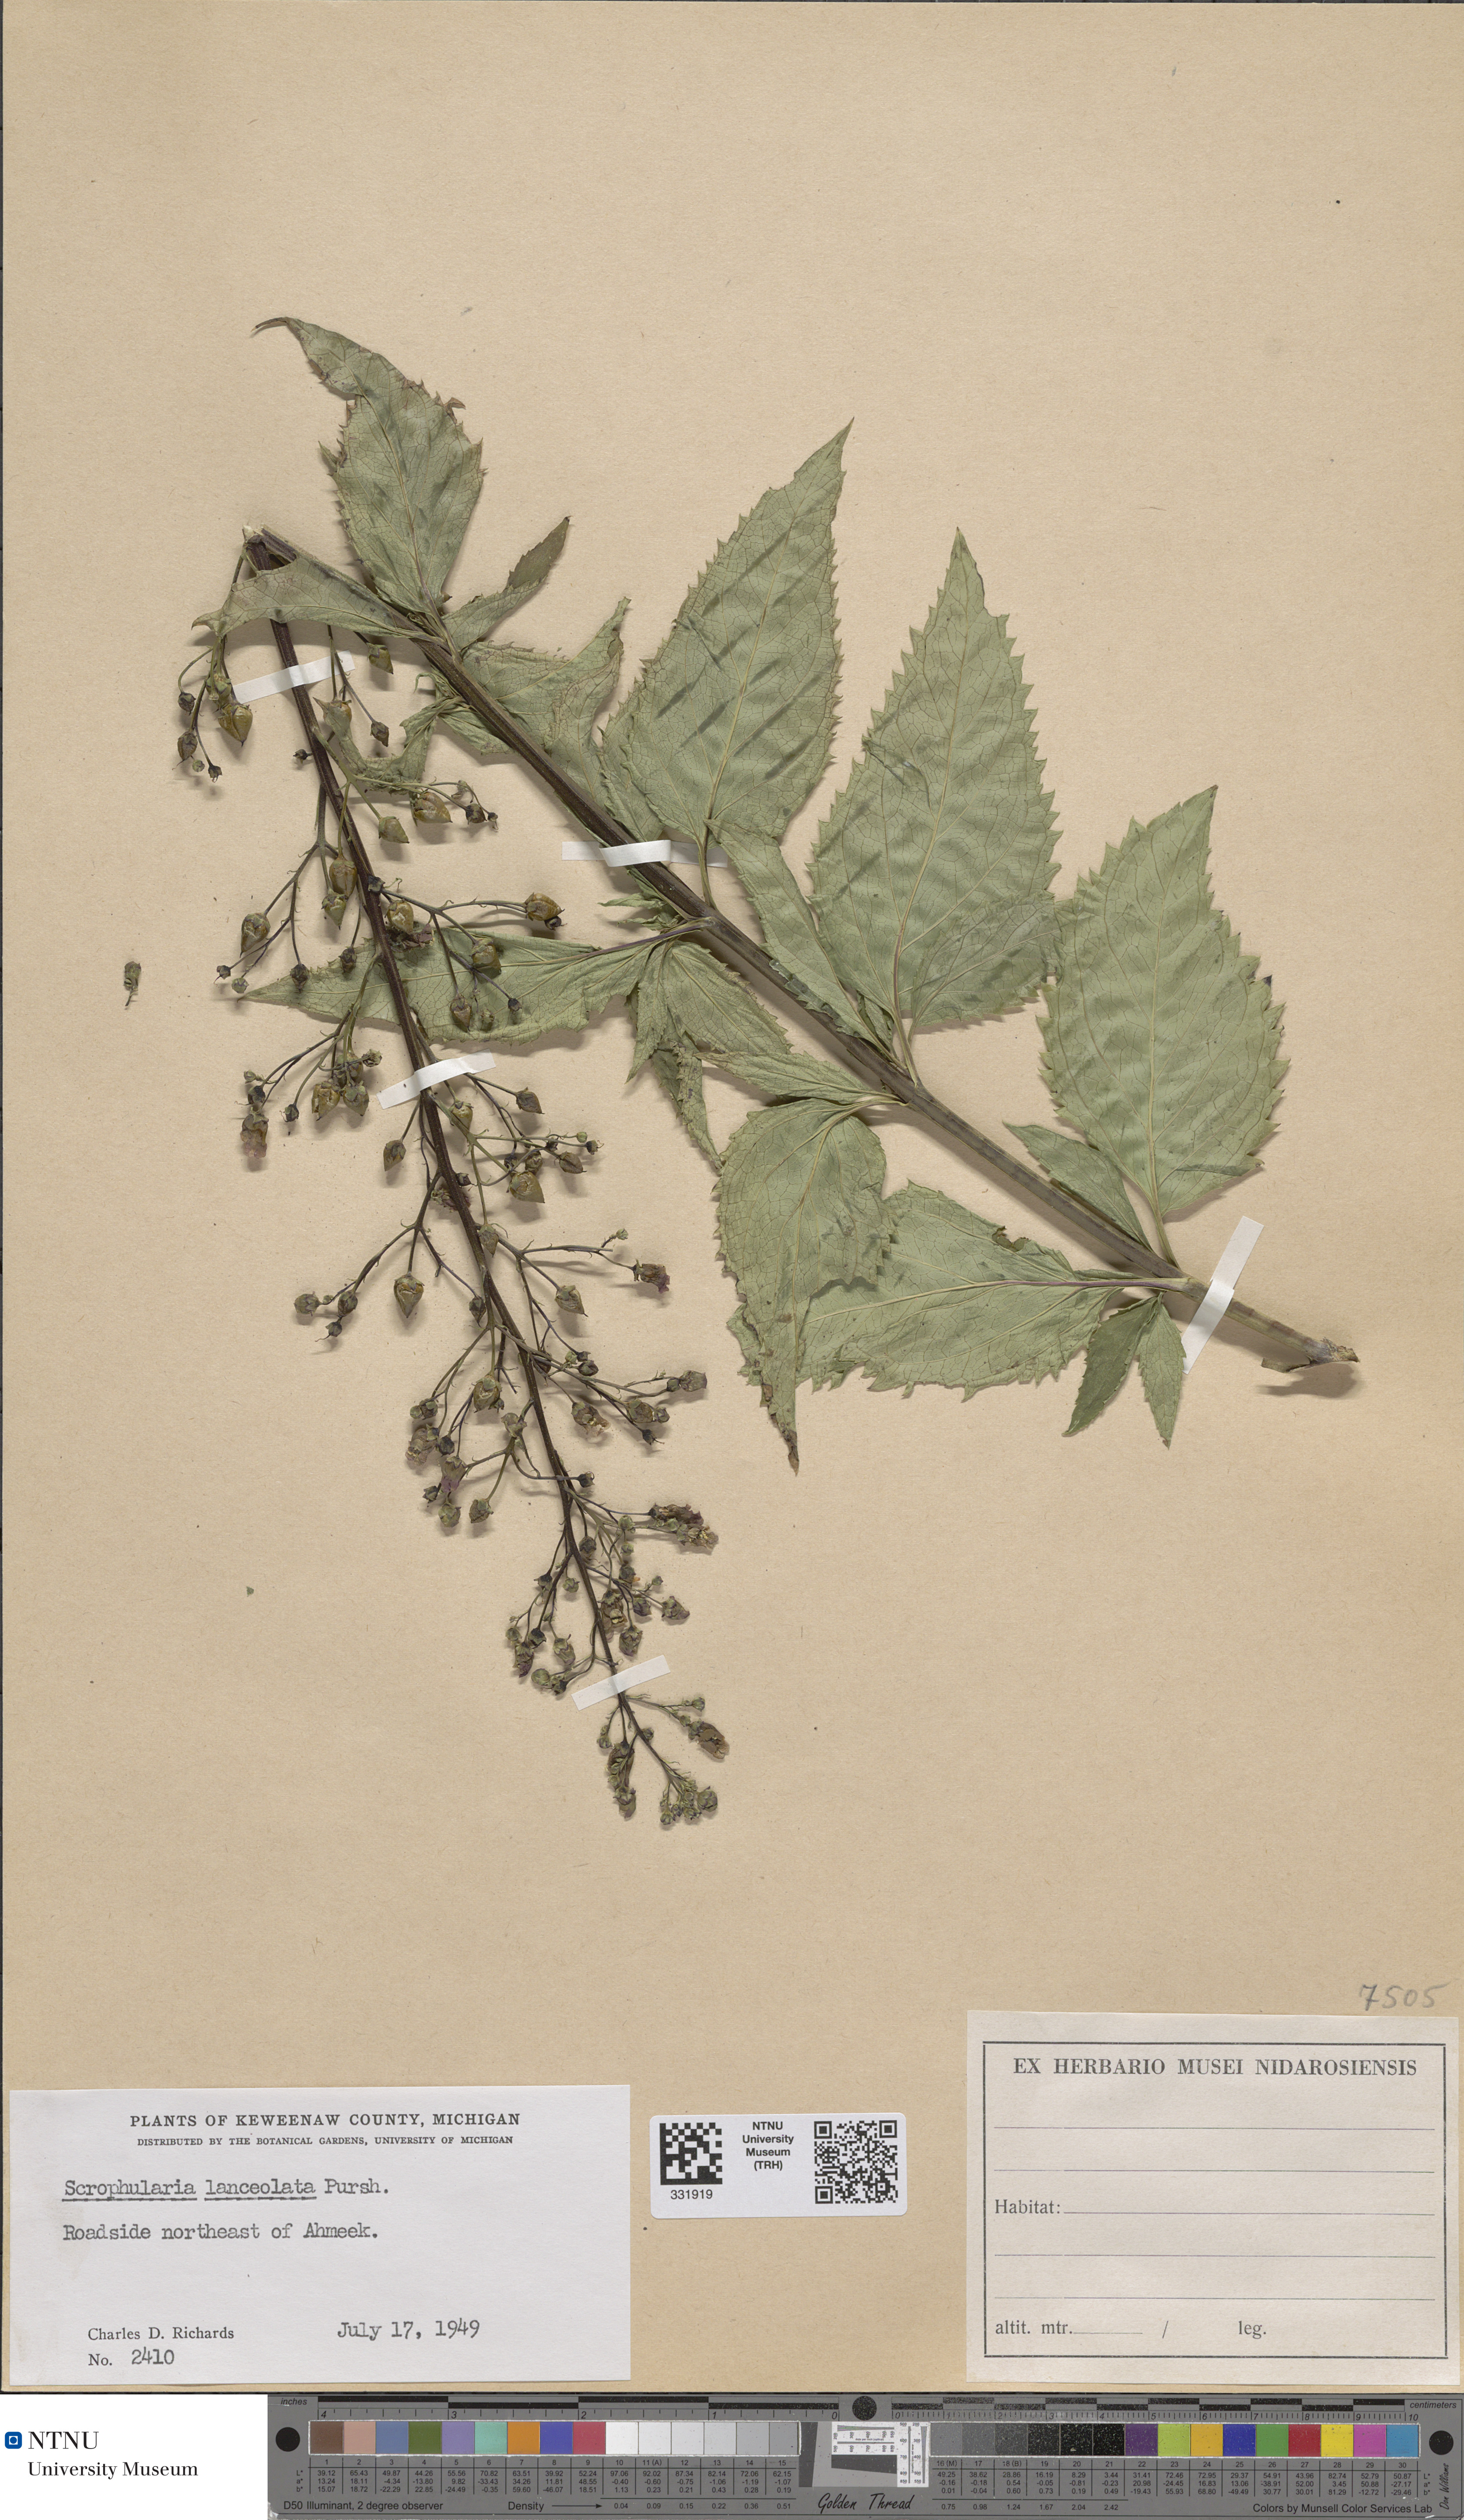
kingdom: Plantae
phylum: Tracheophyta
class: Magnoliopsida
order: Lamiales
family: Scrophulariaceae
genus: Scrophularia
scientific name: Scrophularia lanceolata
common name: American figwort
